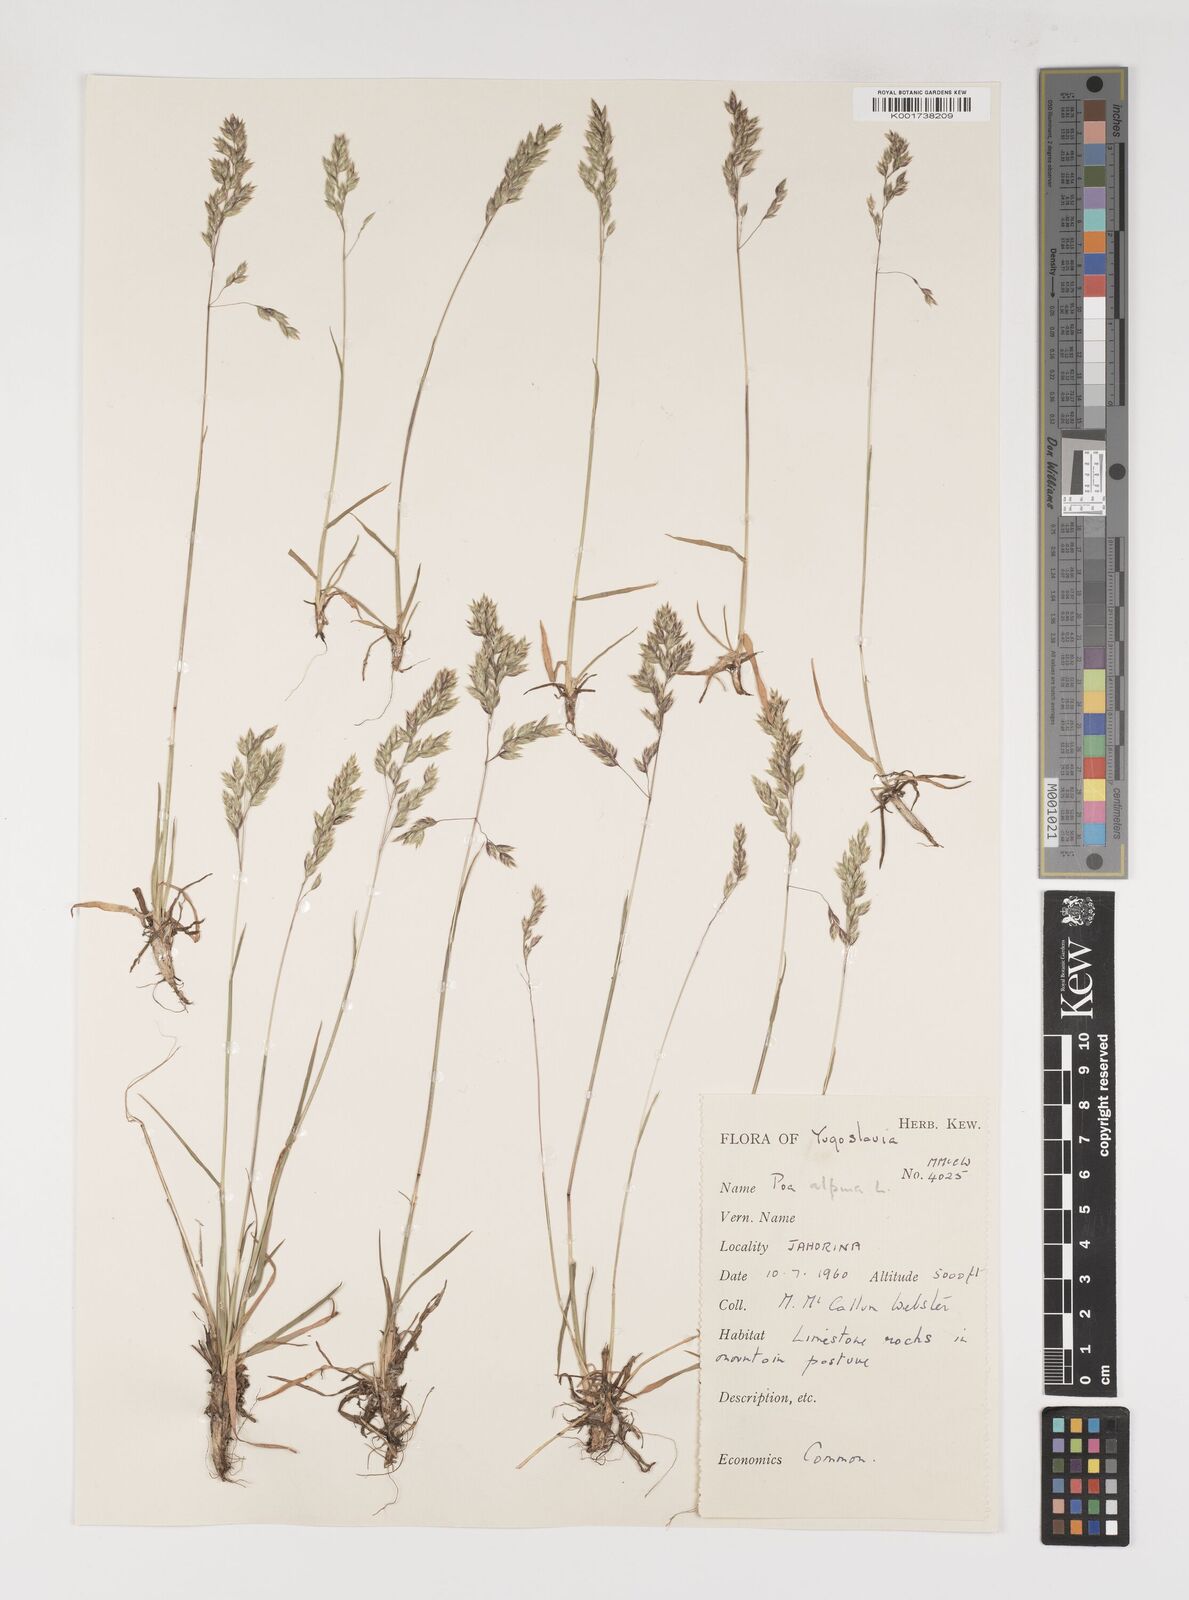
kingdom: Plantae
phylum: Tracheophyta
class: Liliopsida
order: Poales
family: Poaceae
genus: Poa
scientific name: Poa alpina
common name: Alpine bluegrass
